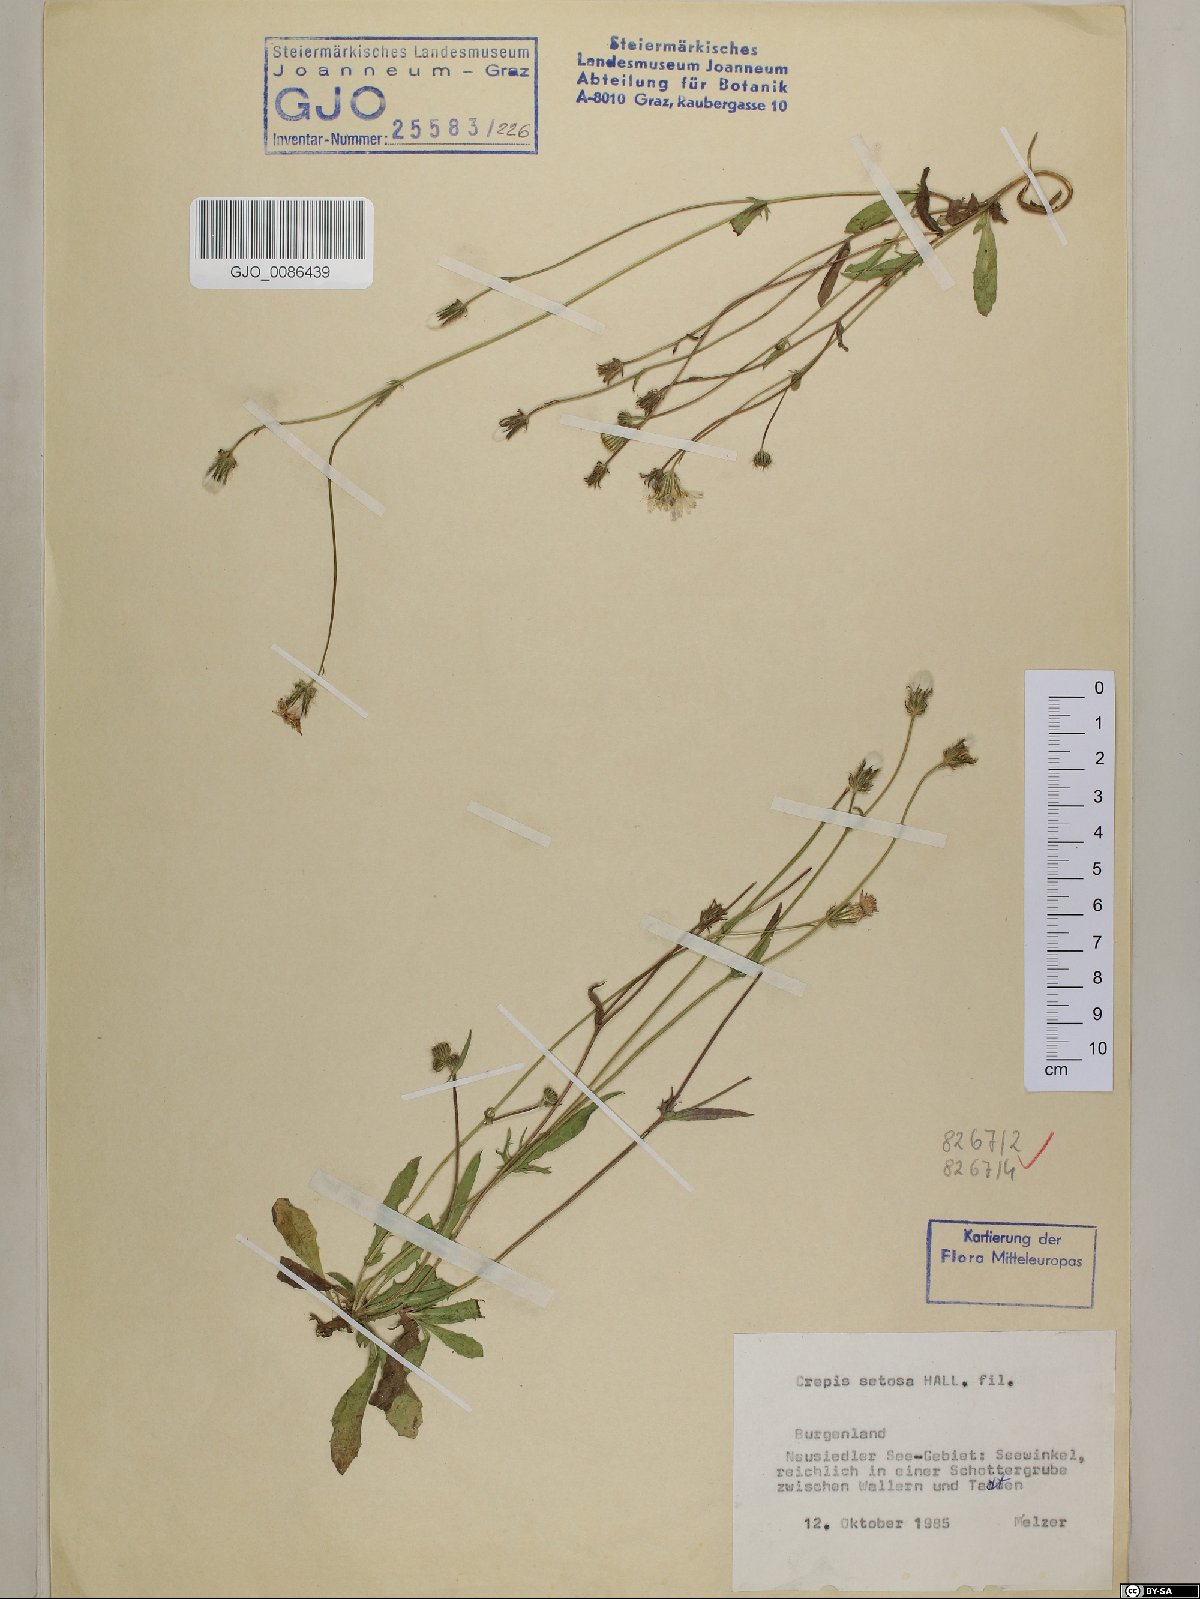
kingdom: Plantae
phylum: Tracheophyta
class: Magnoliopsida
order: Asterales
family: Asteraceae
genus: Crepis
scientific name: Crepis setosa
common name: Bristly hawk's-beard
